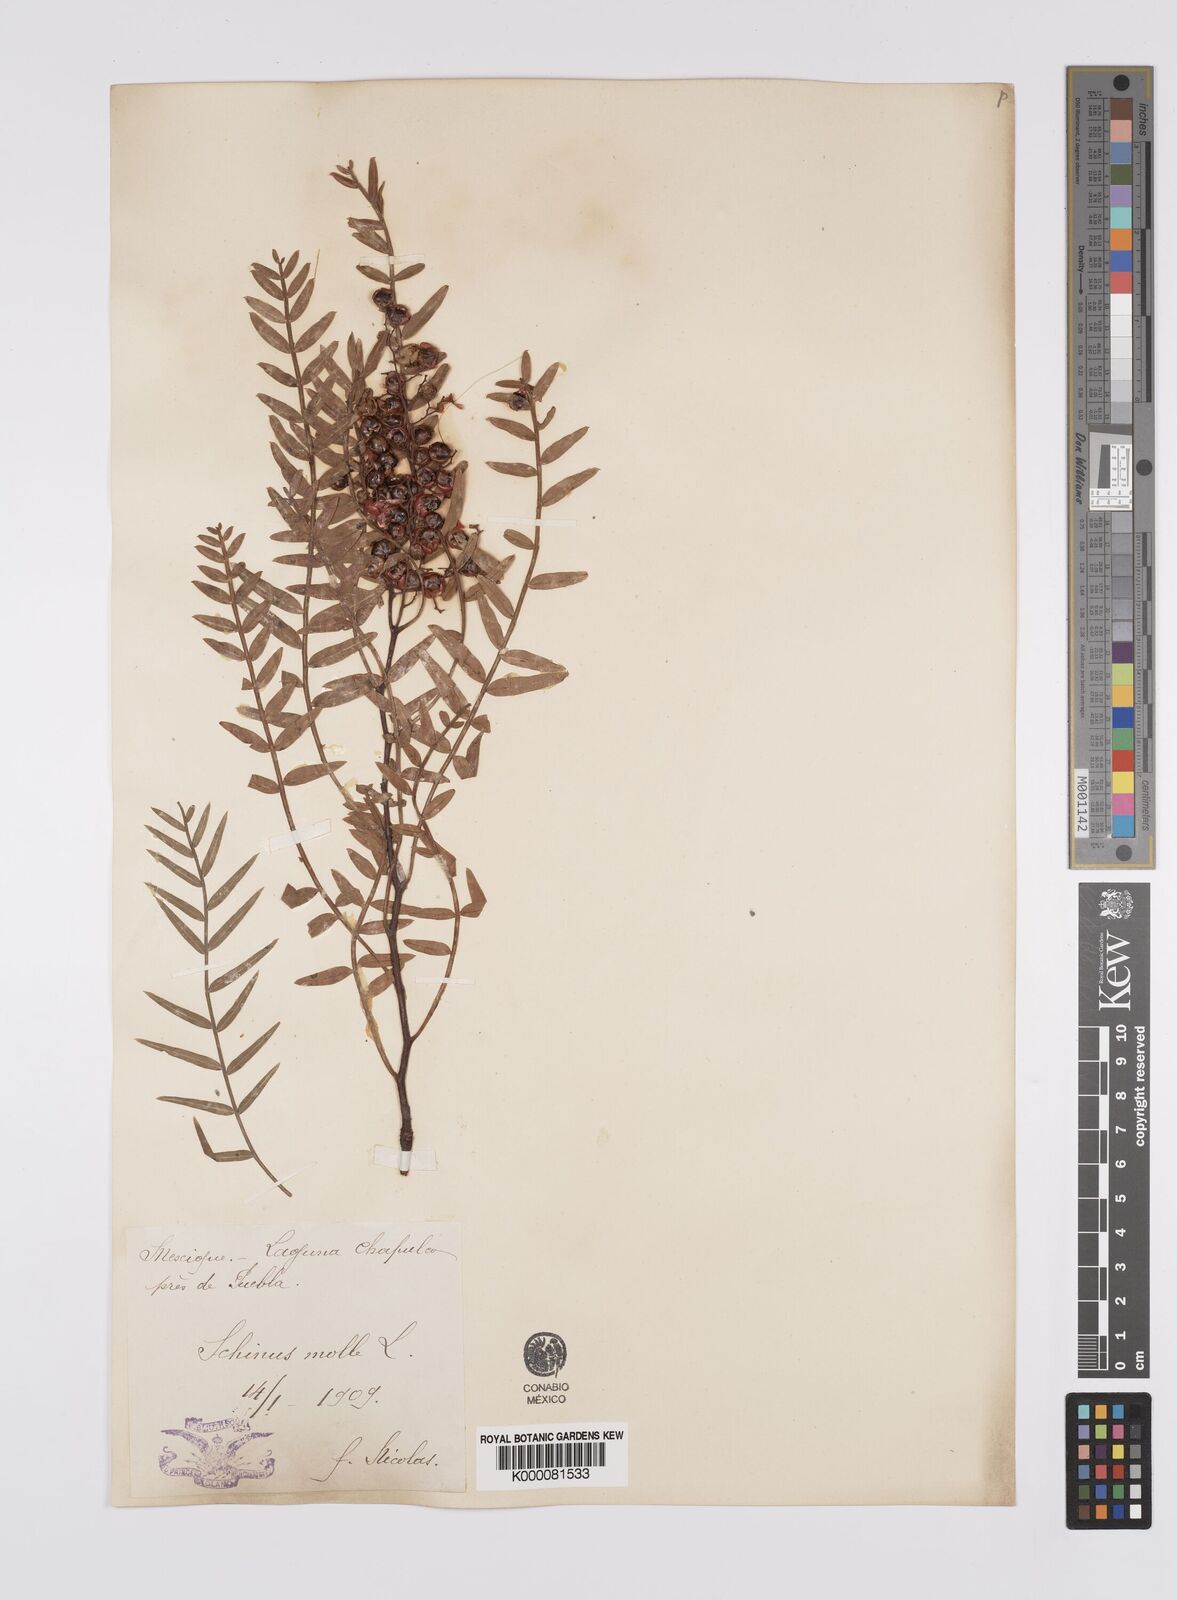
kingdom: Plantae
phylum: Tracheophyta
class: Magnoliopsida
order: Sapindales
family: Anacardiaceae
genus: Schinus
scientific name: Schinus molle
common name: Peruvian peppertree
